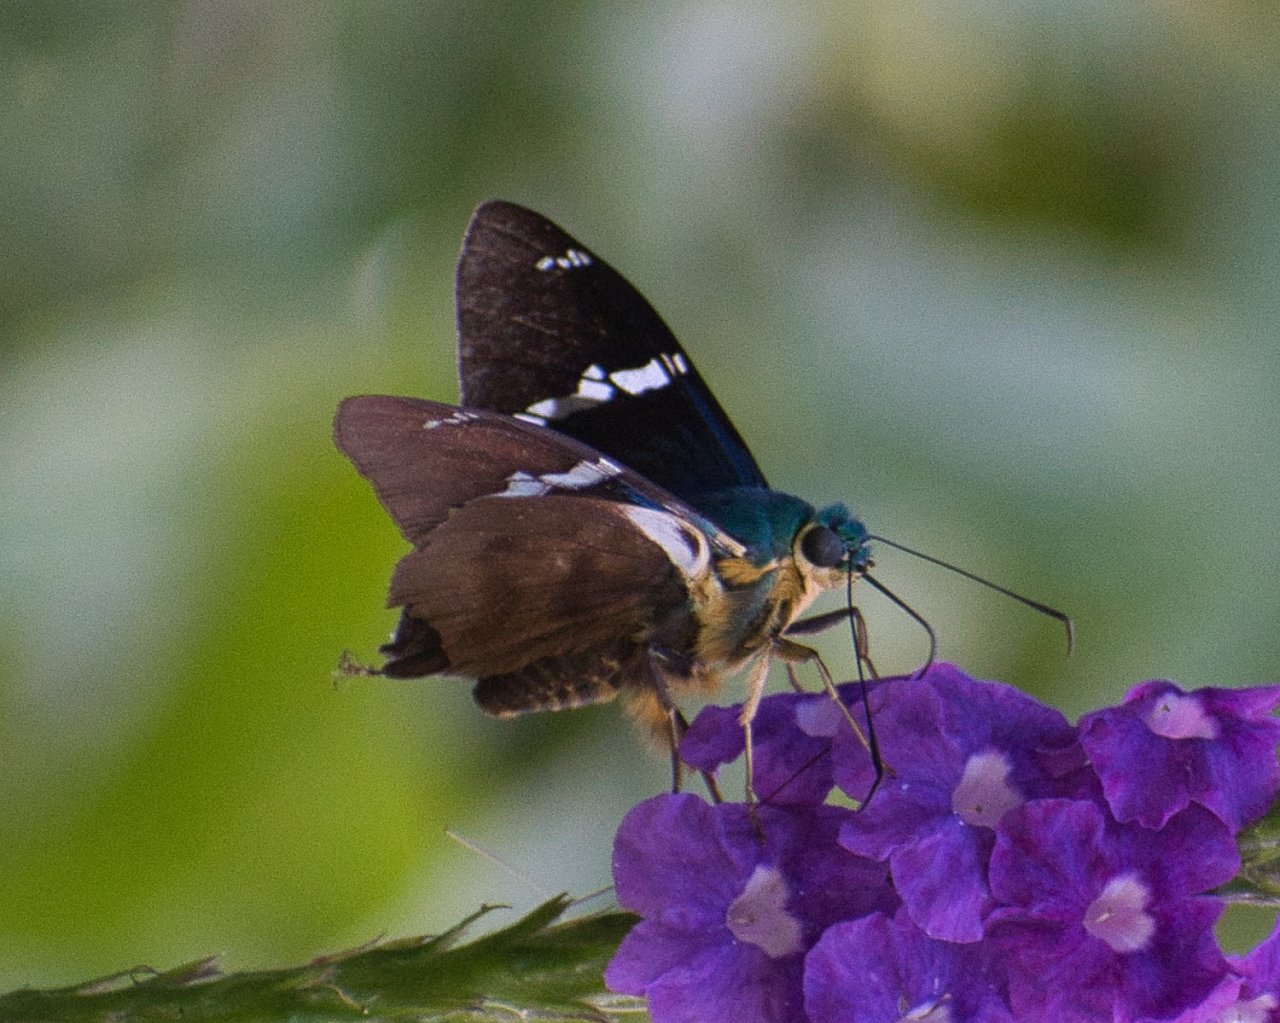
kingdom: Animalia
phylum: Arthropoda
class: Insecta
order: Lepidoptera
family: Hesperiidae
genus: Astraptes
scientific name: Astraptes fulgerator
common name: Two-barred Flasher
